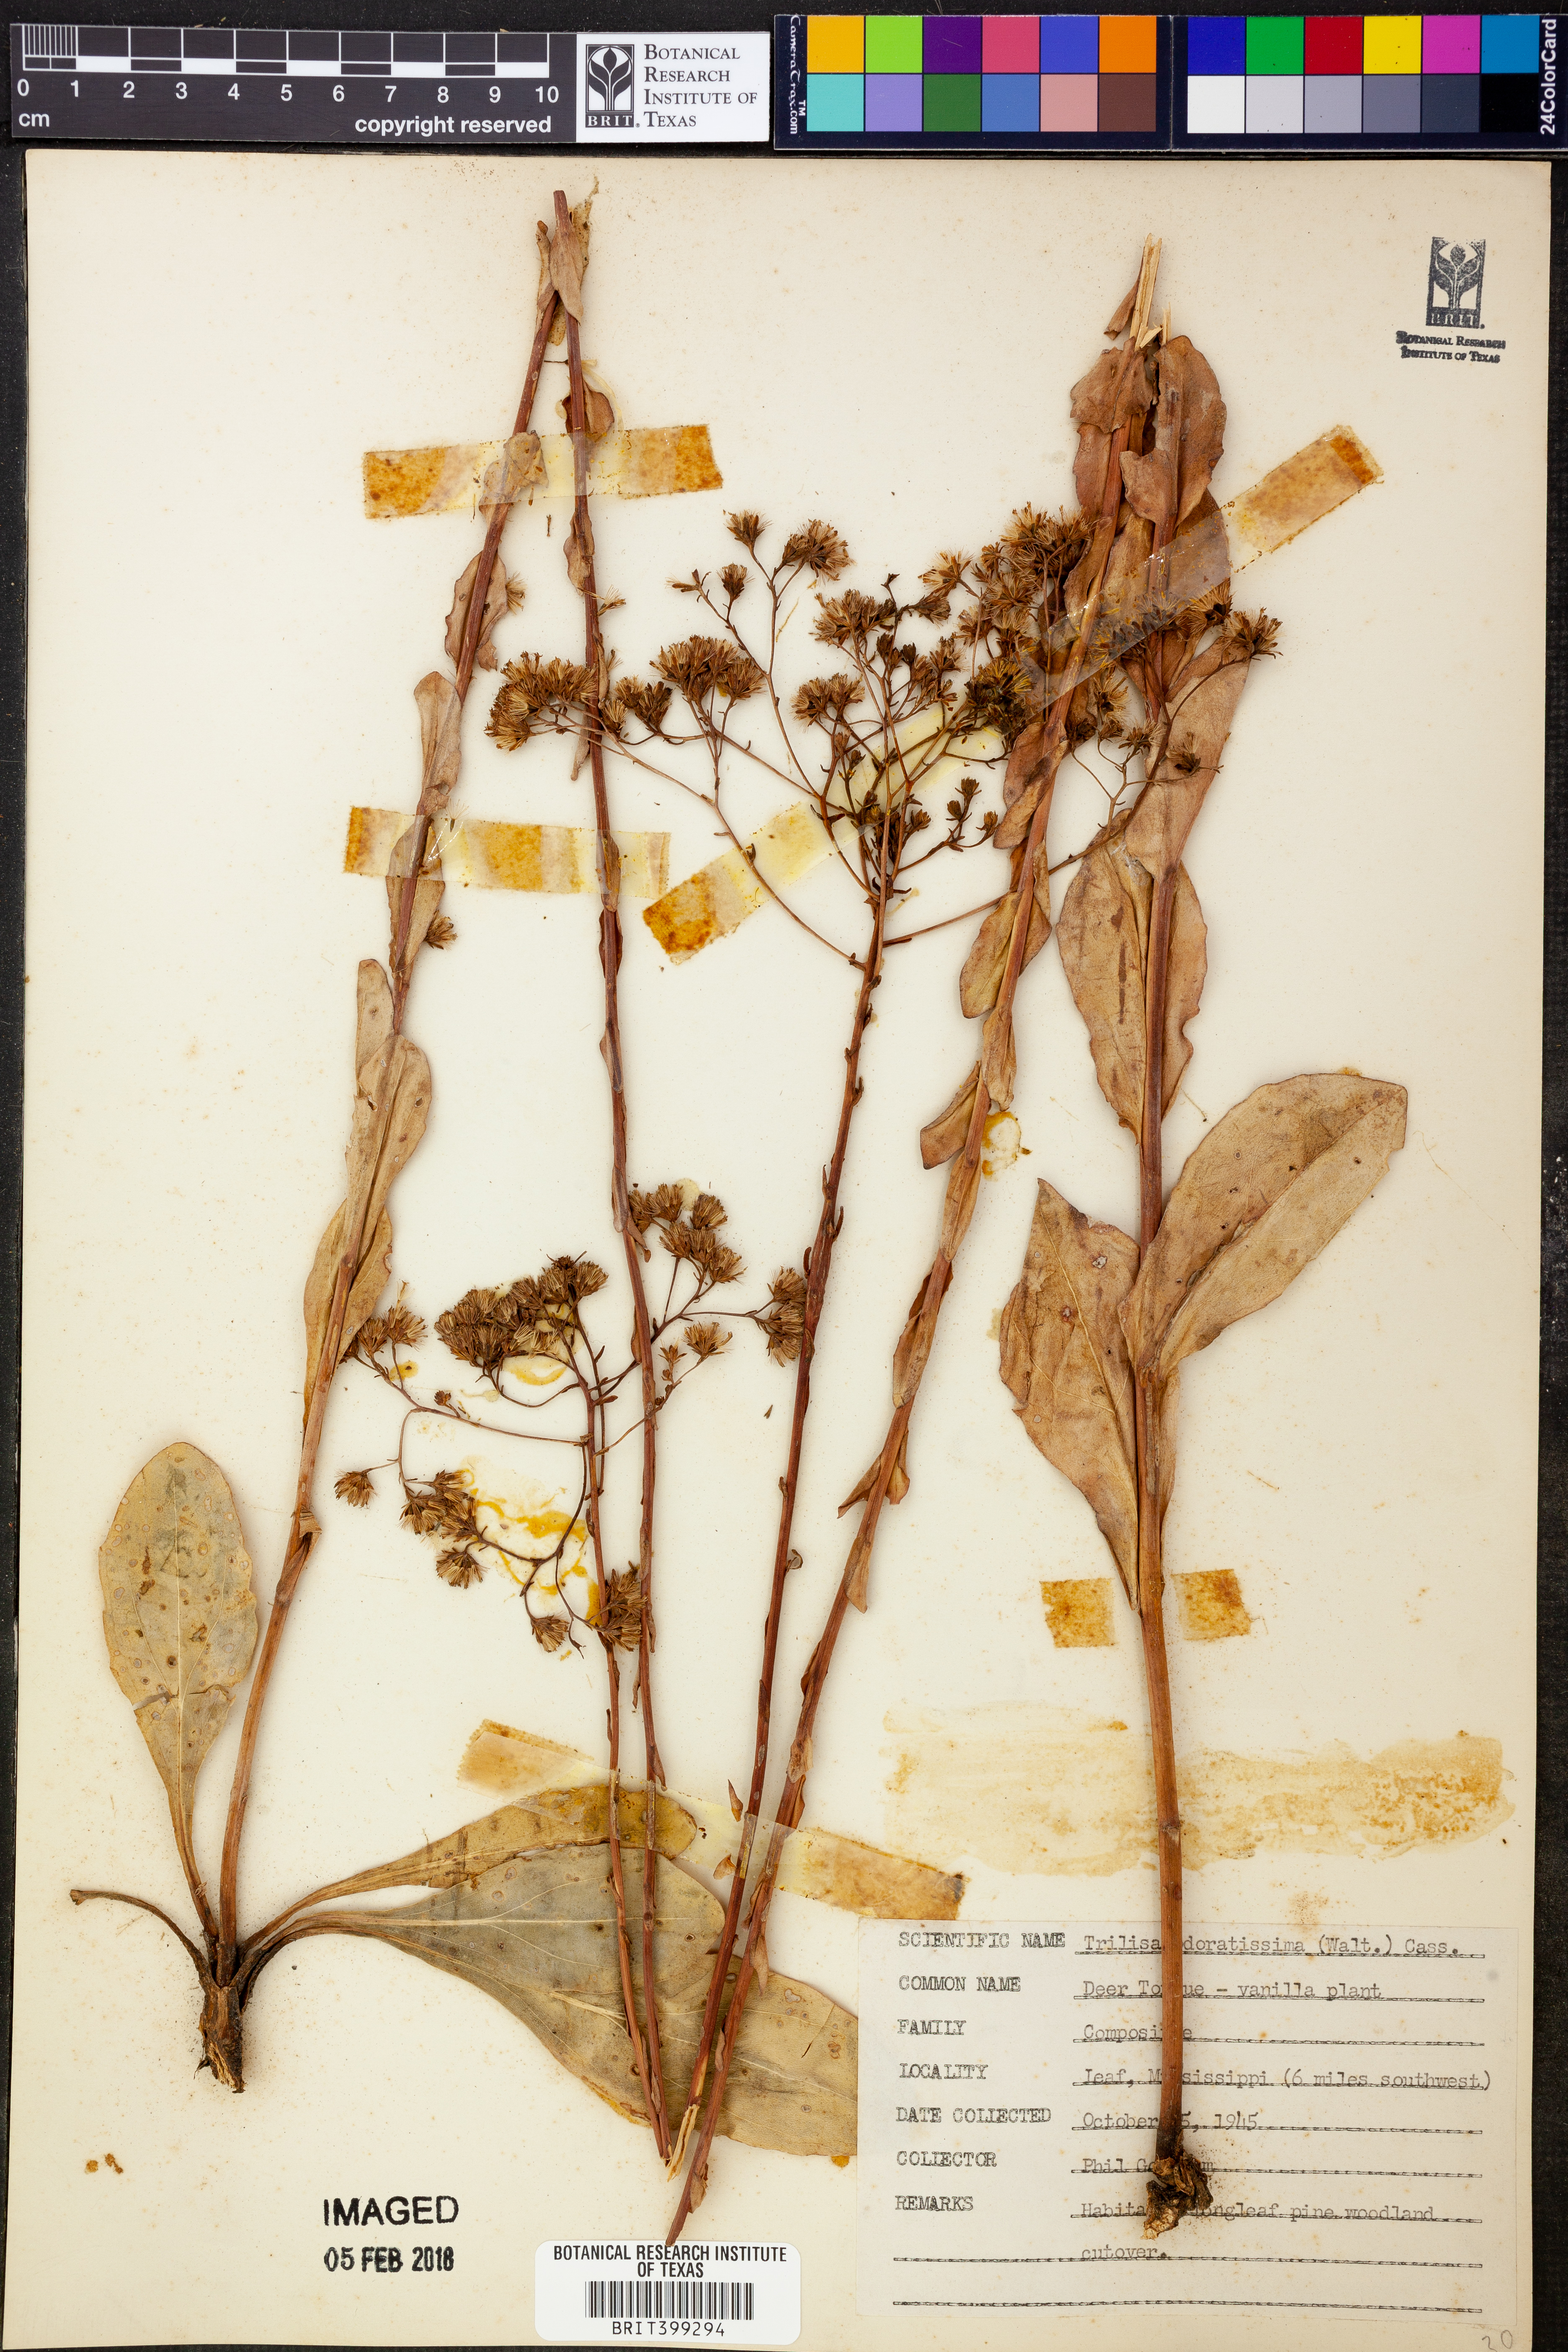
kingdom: Plantae
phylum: Tracheophyta
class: Magnoliopsida
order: Asterales
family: Asteraceae
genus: Carphephorus
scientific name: Carphephorus odoratissimus
